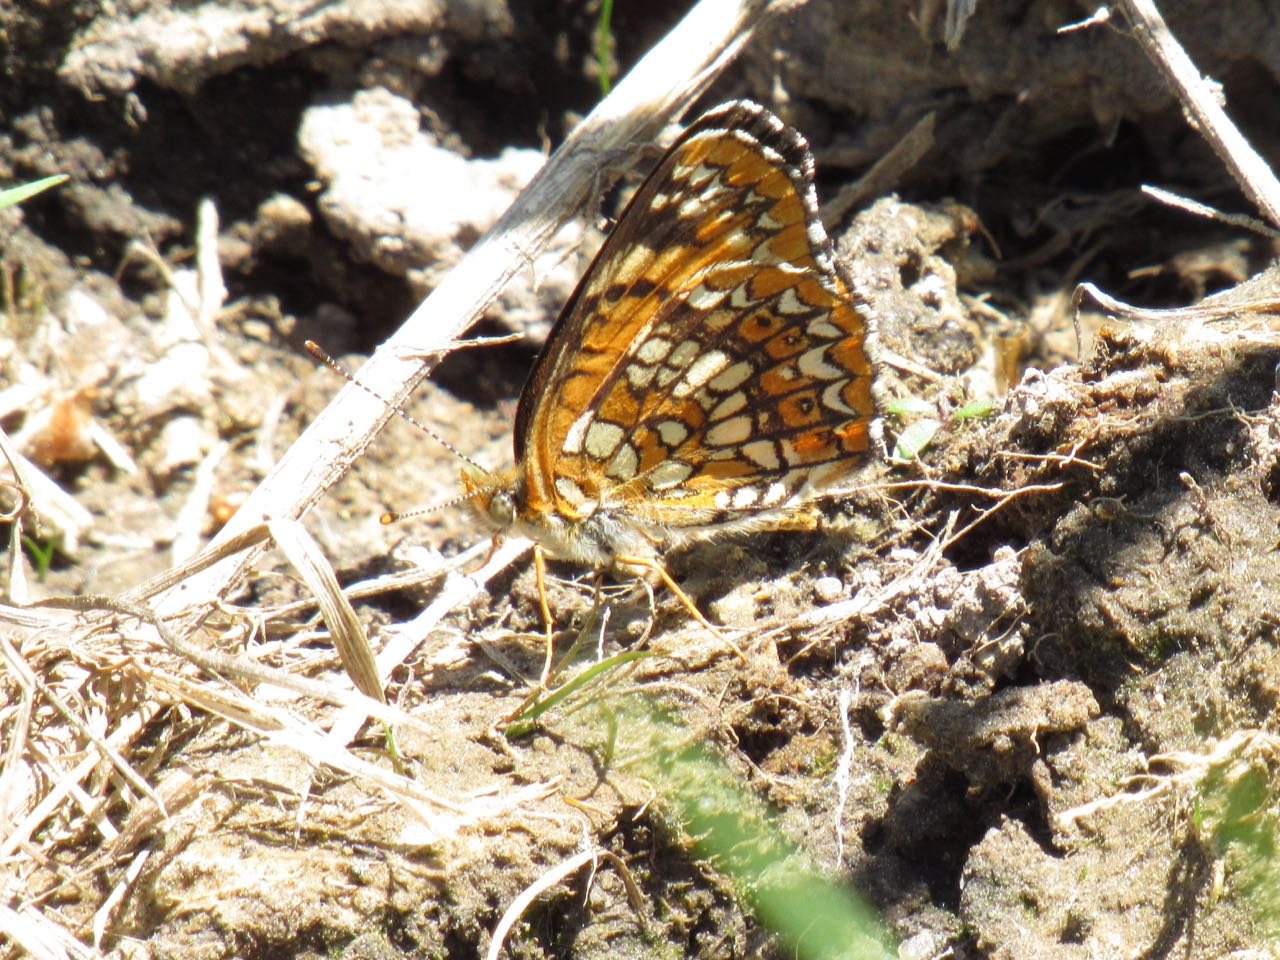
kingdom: Animalia
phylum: Arthropoda
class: Insecta
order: Lepidoptera
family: Nymphalidae
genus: Chlosyne
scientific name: Chlosyne harrisii
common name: Harris's Checkerspot
